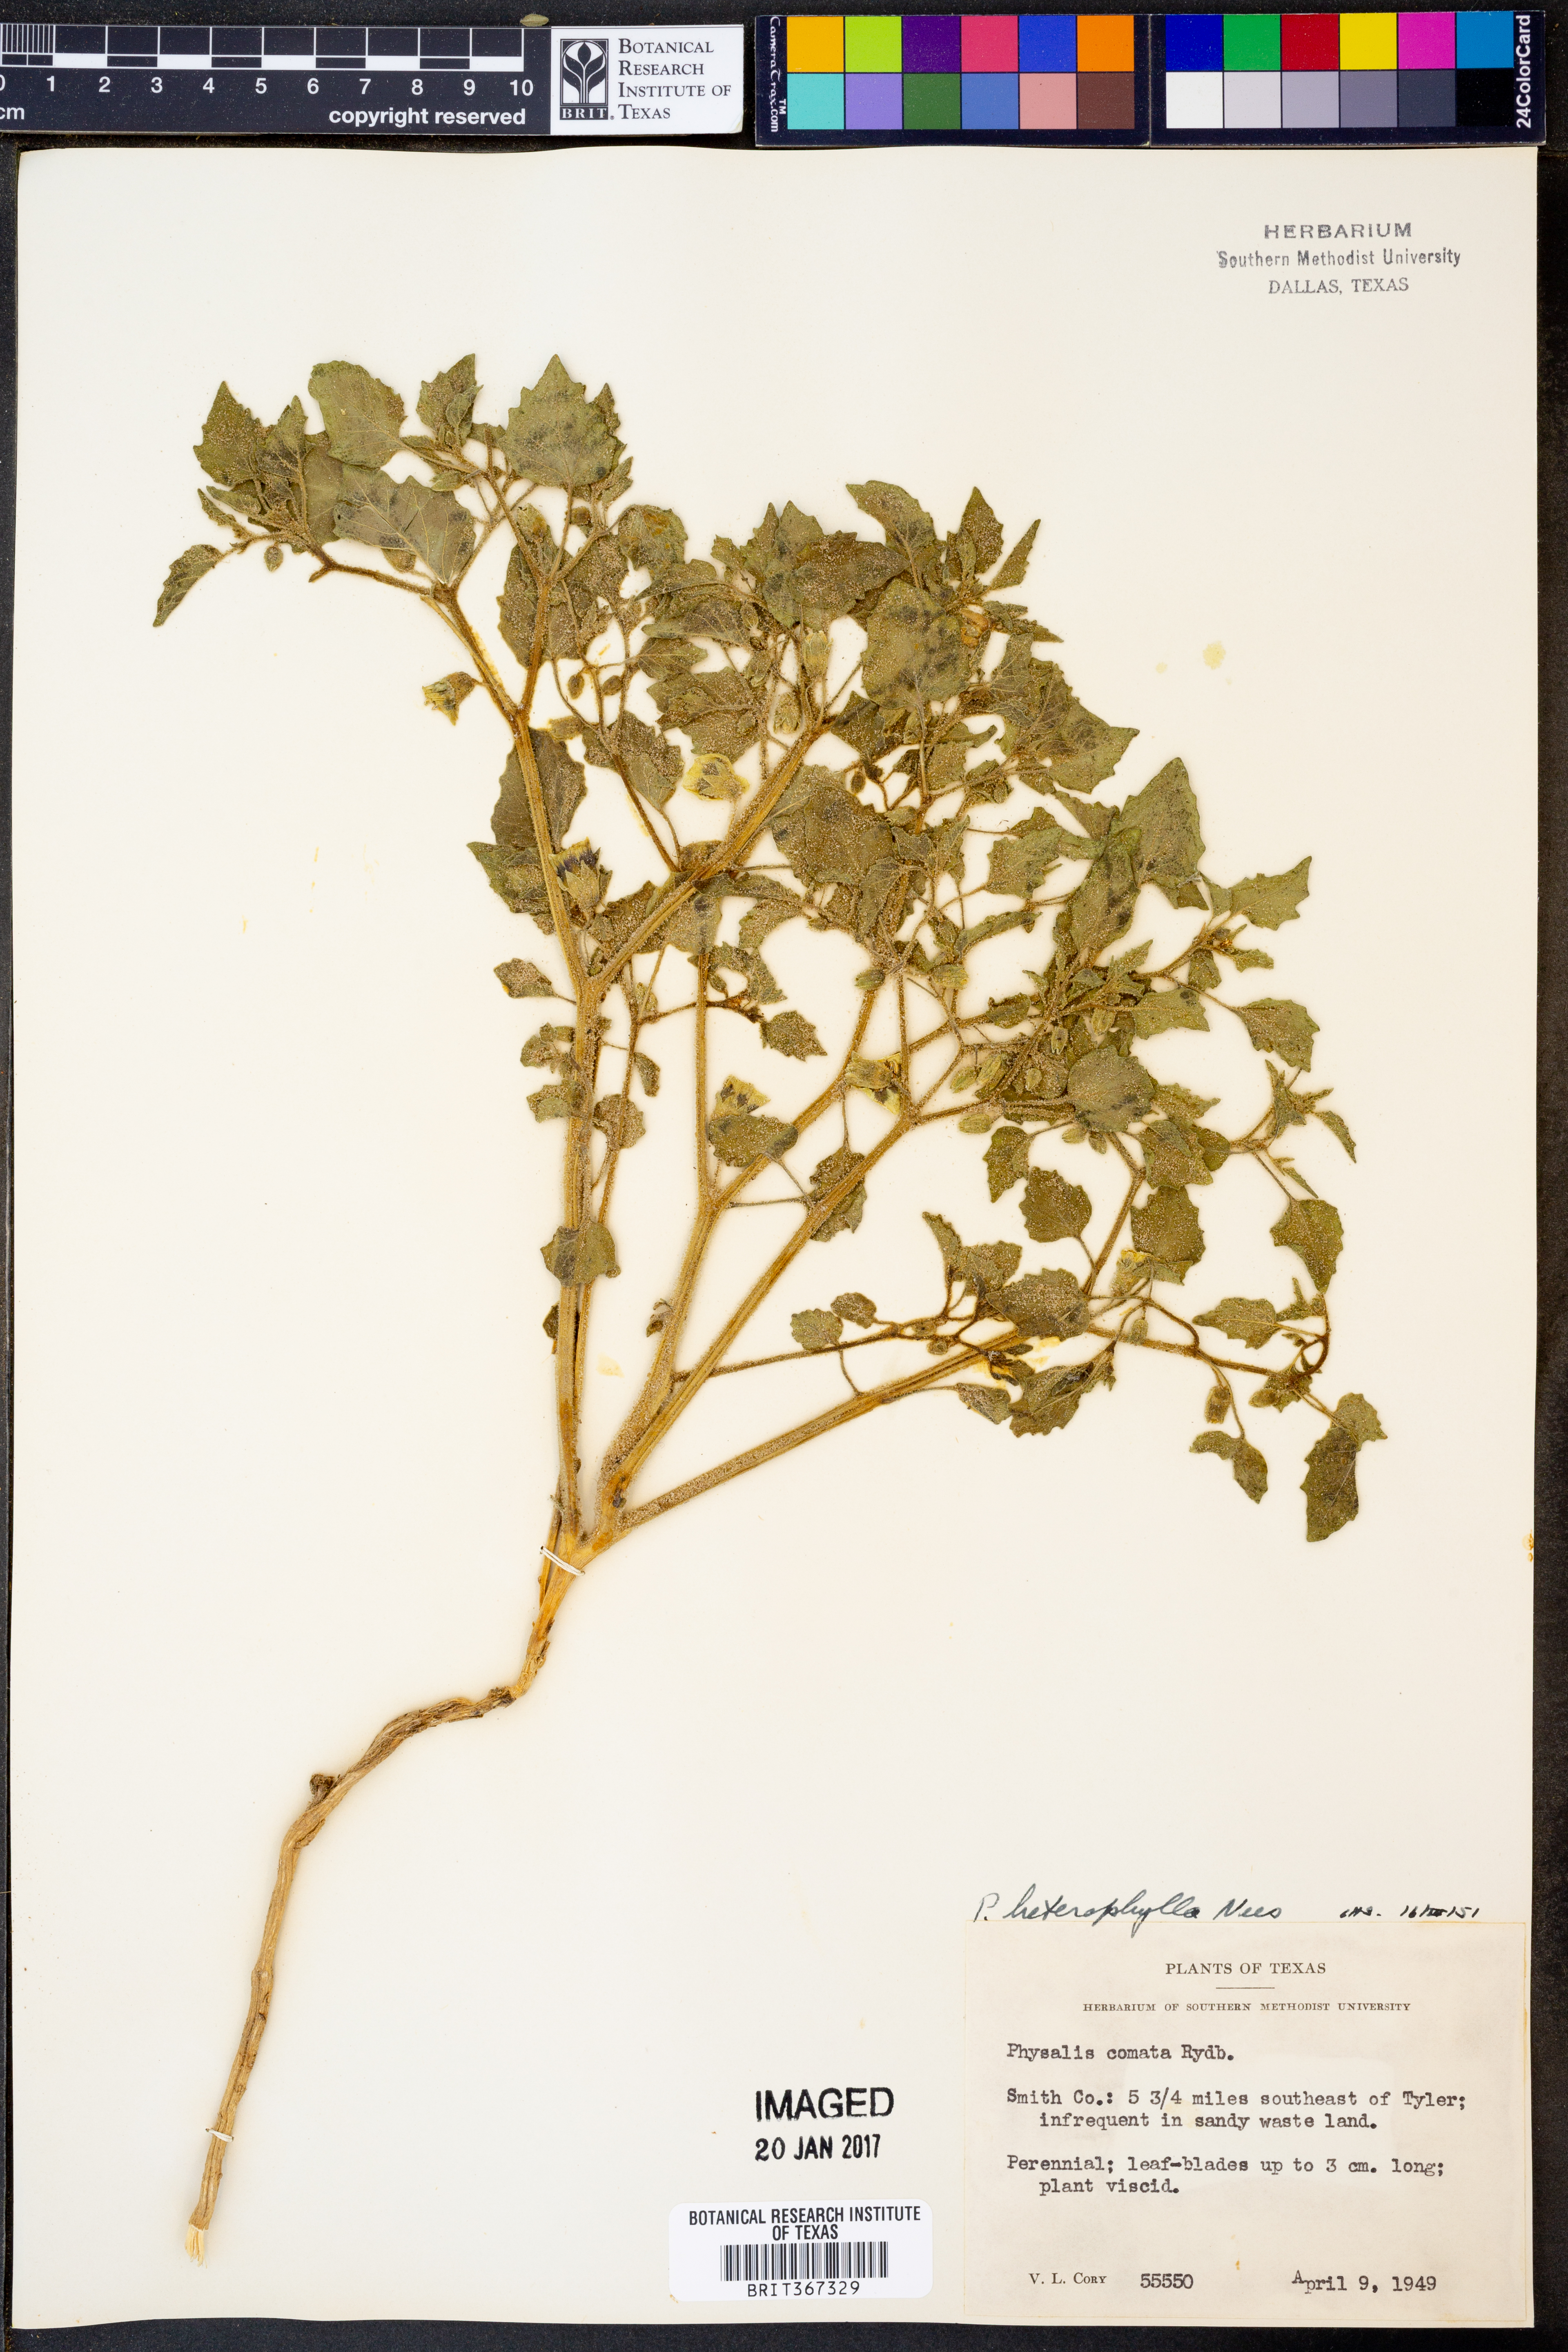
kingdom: Plantae
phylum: Tracheophyta
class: Magnoliopsida
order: Solanales
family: Solanaceae
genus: Physalis
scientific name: Physalis heterophylla
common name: Clammy ground-cherry
